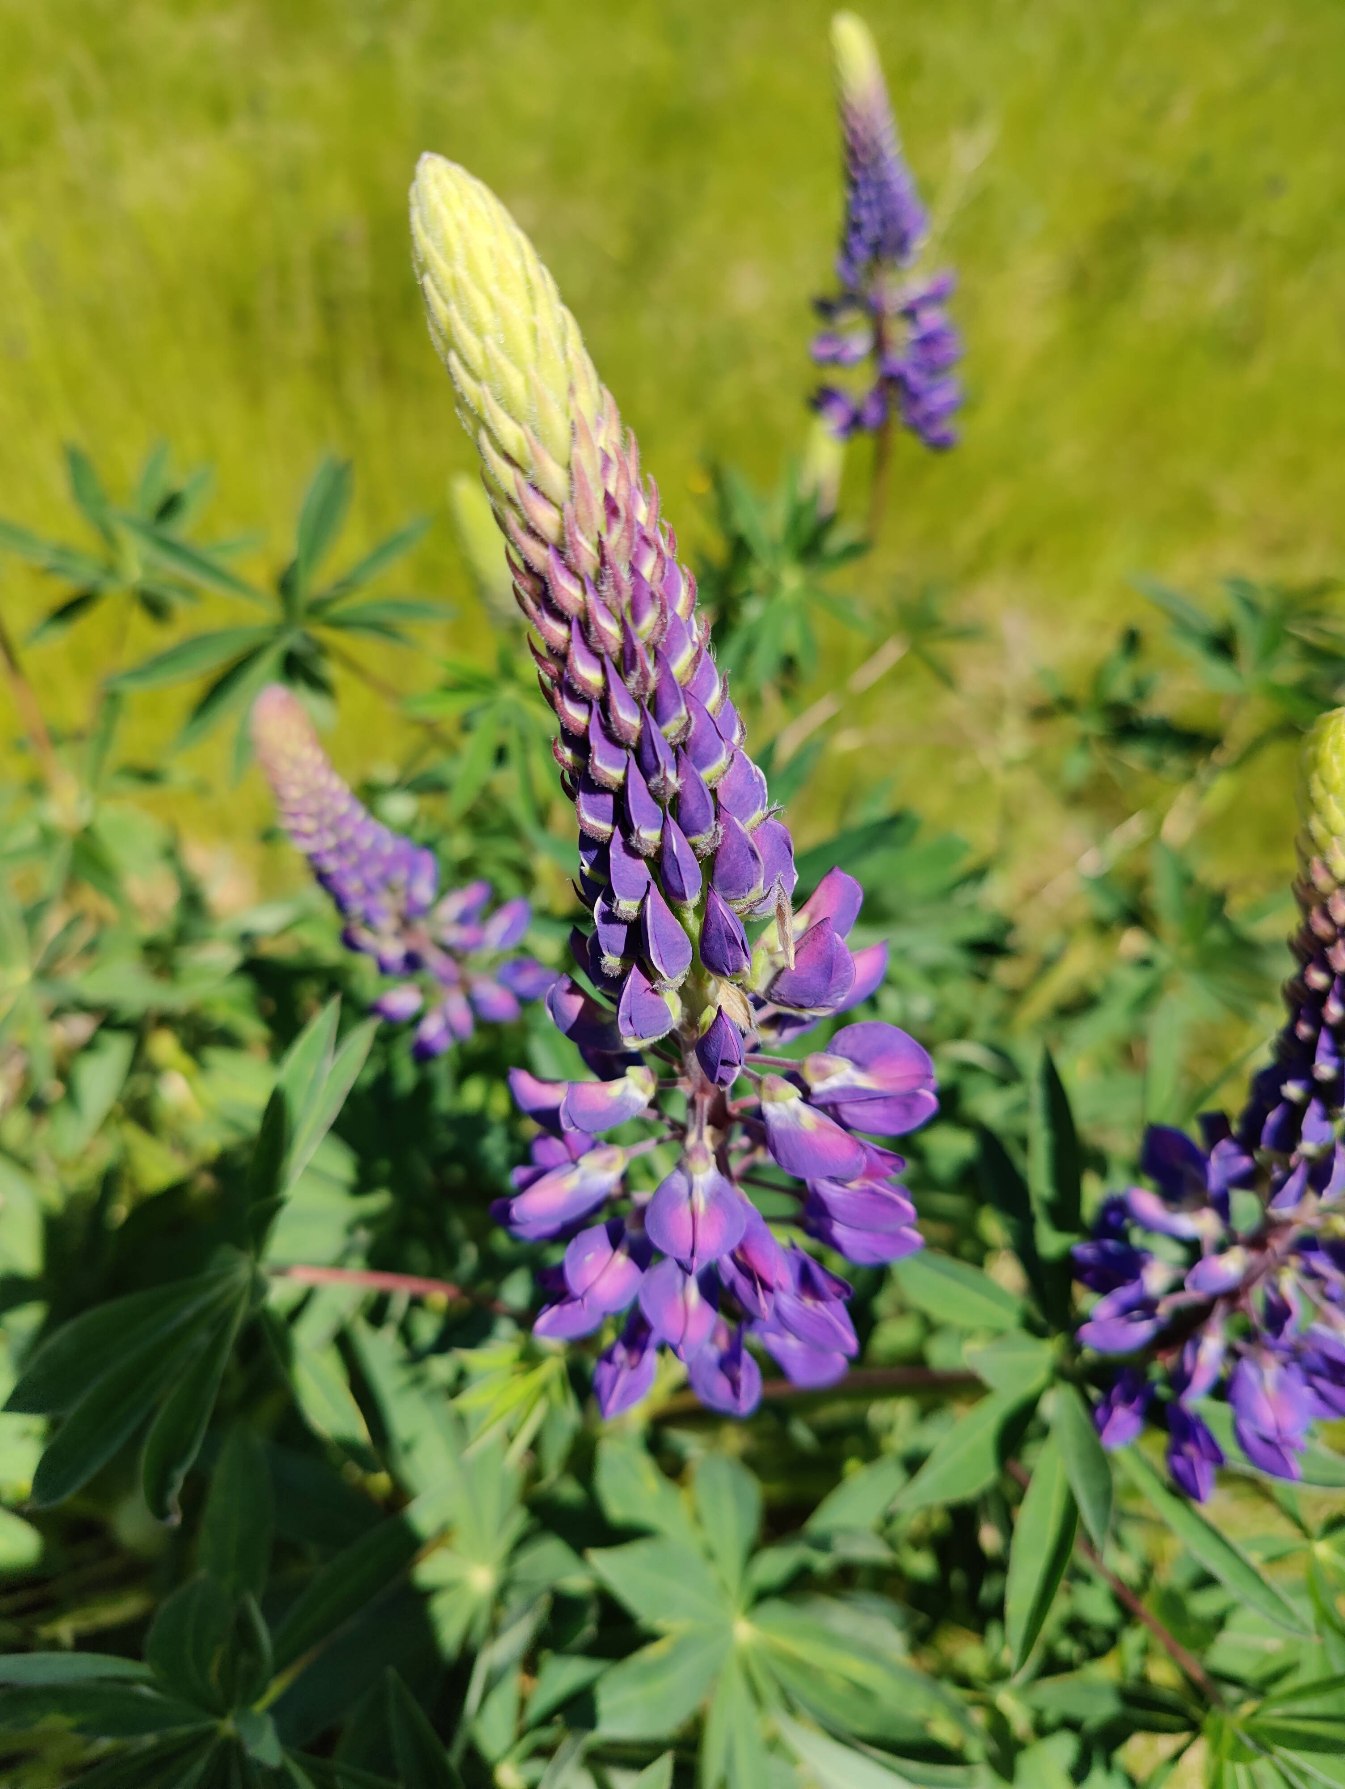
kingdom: Plantae
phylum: Tracheophyta
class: Magnoliopsida
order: Fabales
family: Fabaceae
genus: Lupinus
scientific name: Lupinus polyphyllus
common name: Mangebladet lupin
